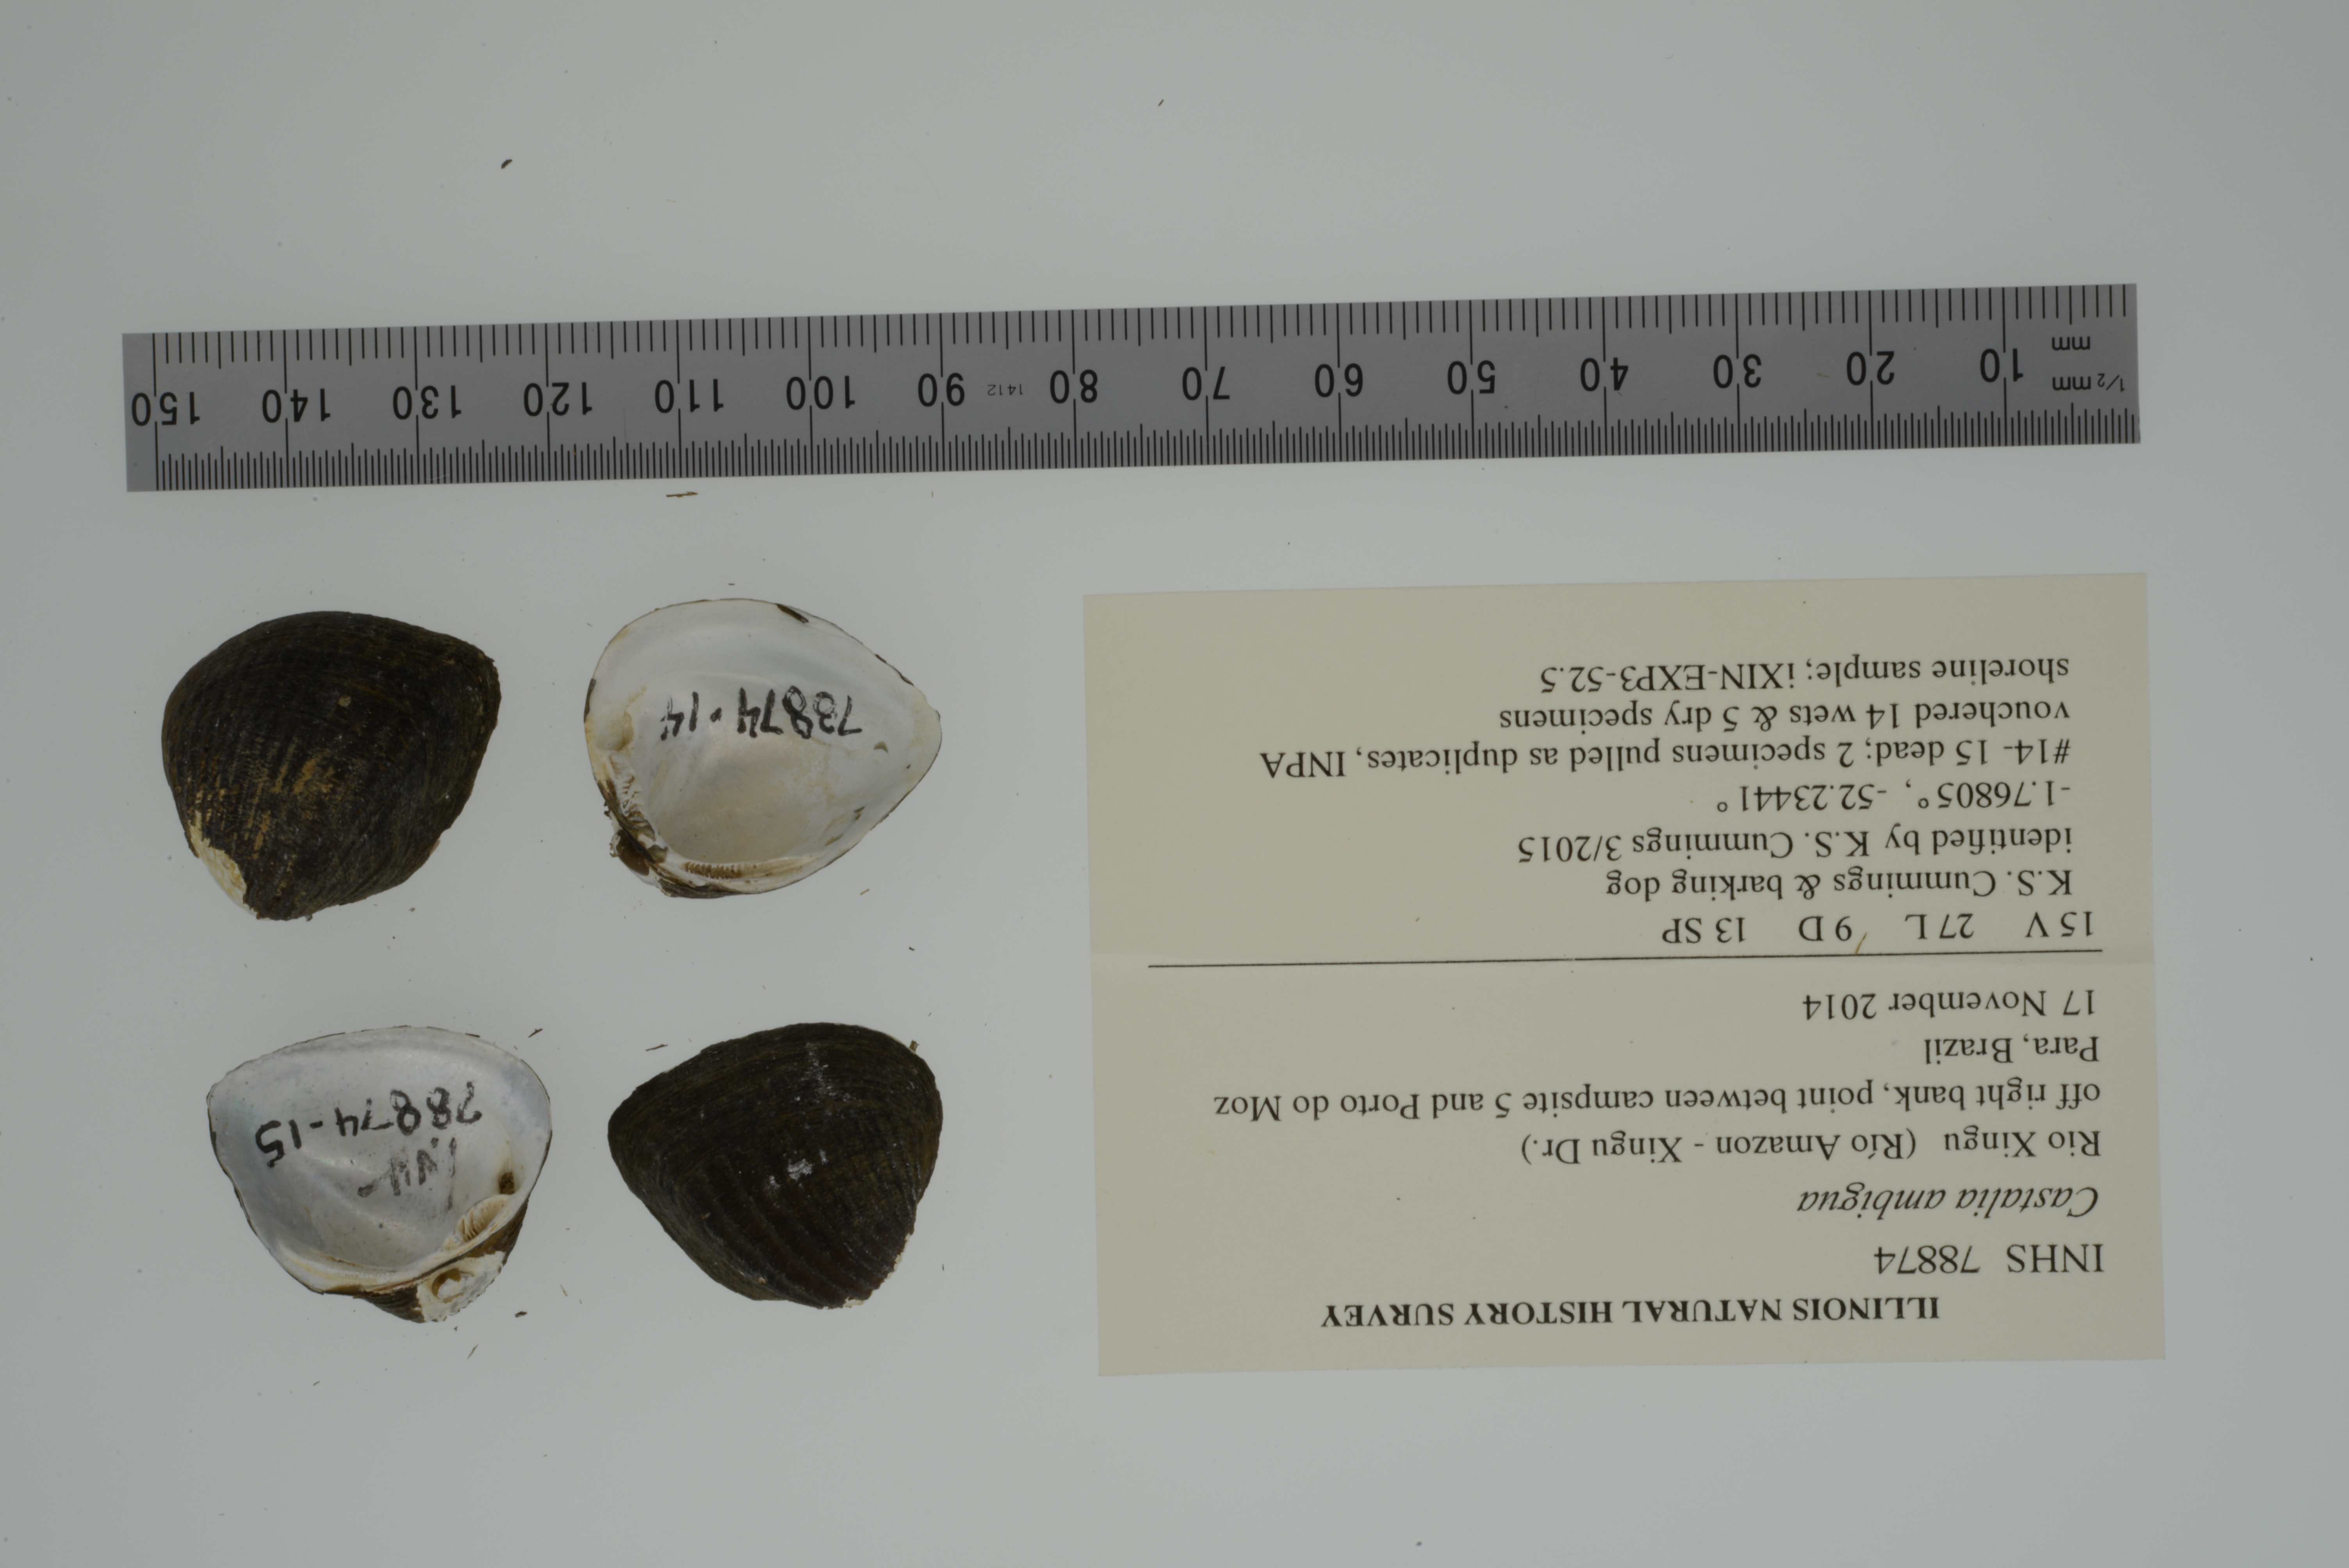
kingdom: Animalia
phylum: Mollusca
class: Bivalvia
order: Unionida
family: Hyriidae
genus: Castalia
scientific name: Castalia ambigua
